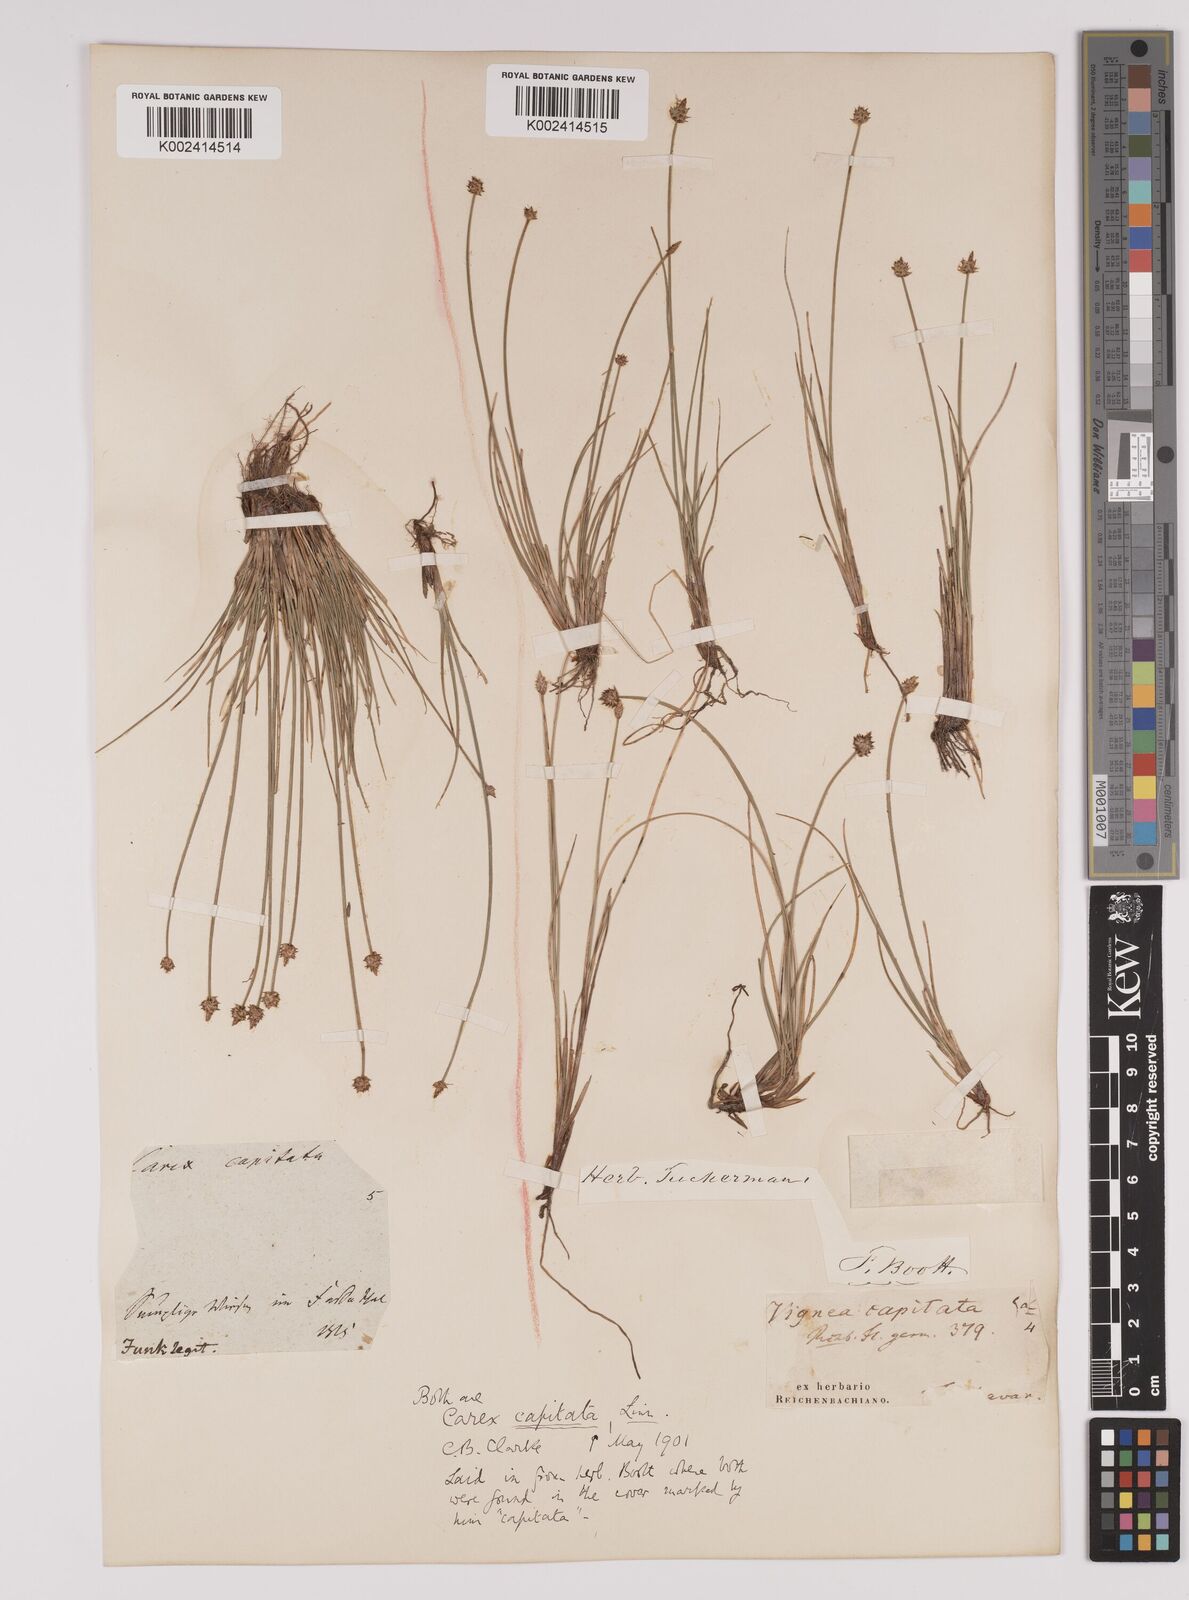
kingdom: Plantae
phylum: Tracheophyta
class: Liliopsida
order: Poales
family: Cyperaceae
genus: Carex
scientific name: Carex capitata
